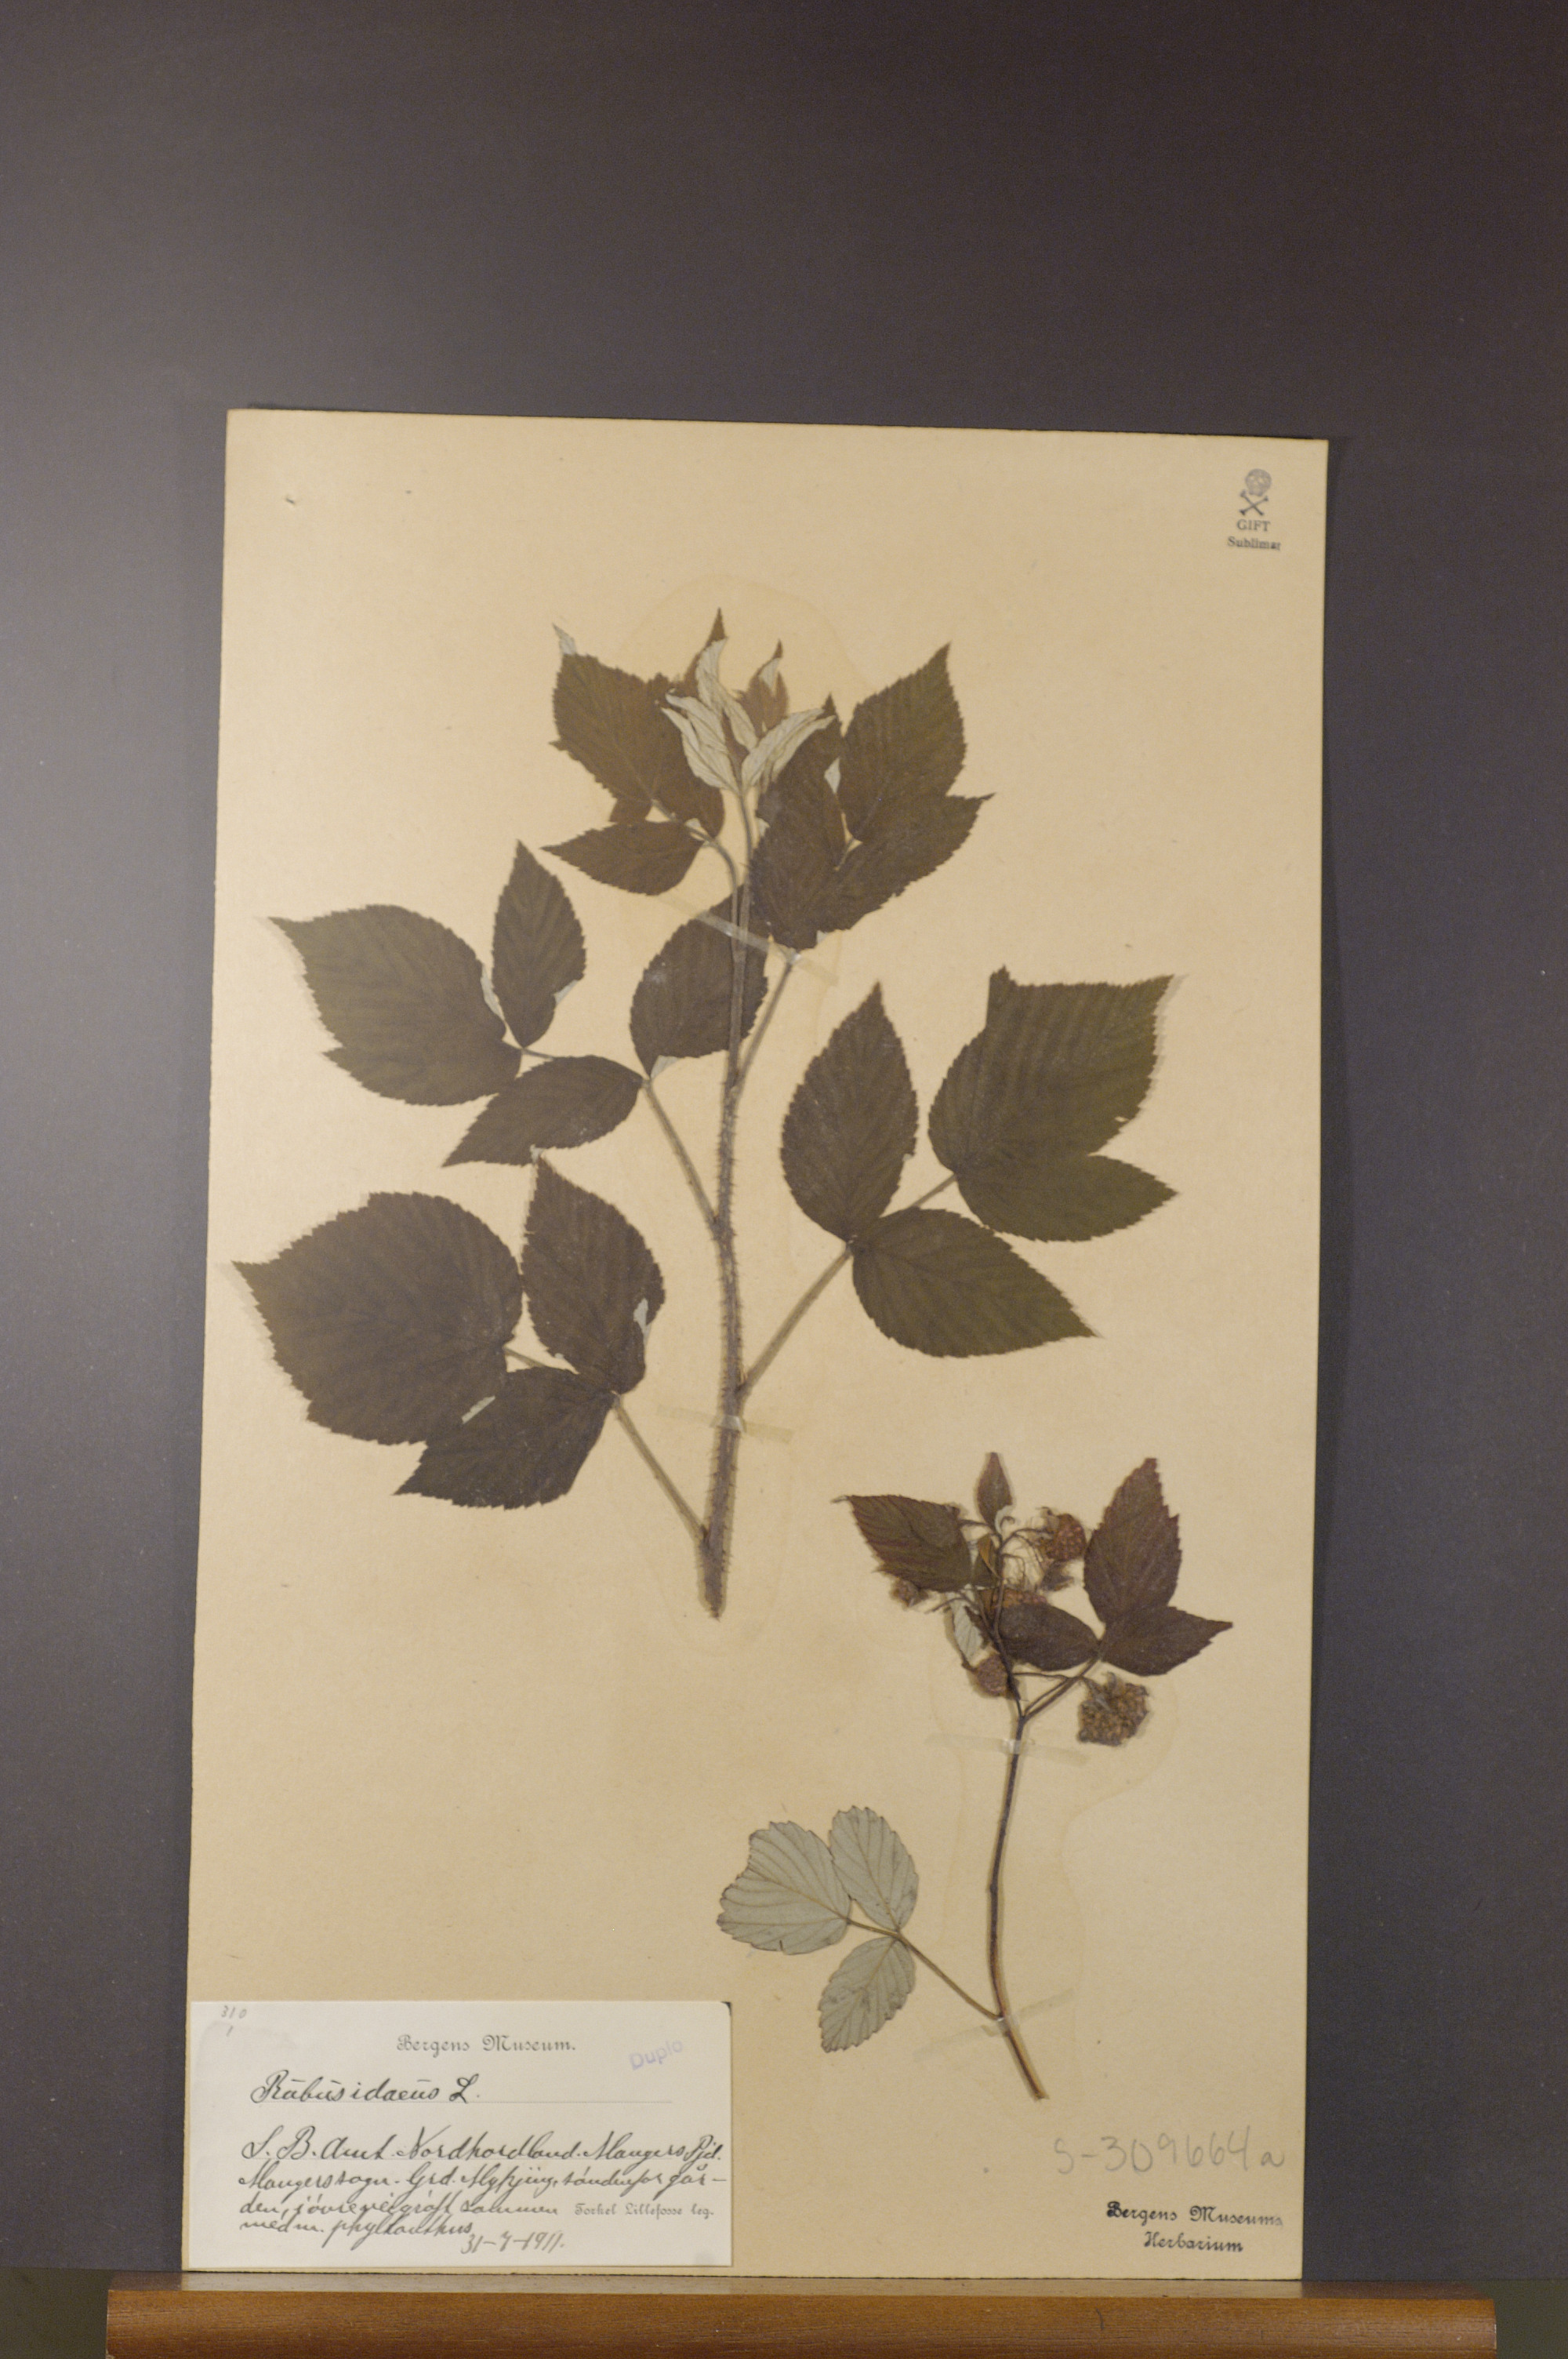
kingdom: Plantae
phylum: Tracheophyta
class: Magnoliopsida
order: Rosales
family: Rosaceae
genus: Rubus
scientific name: Rubus idaeus
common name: Raspberry
